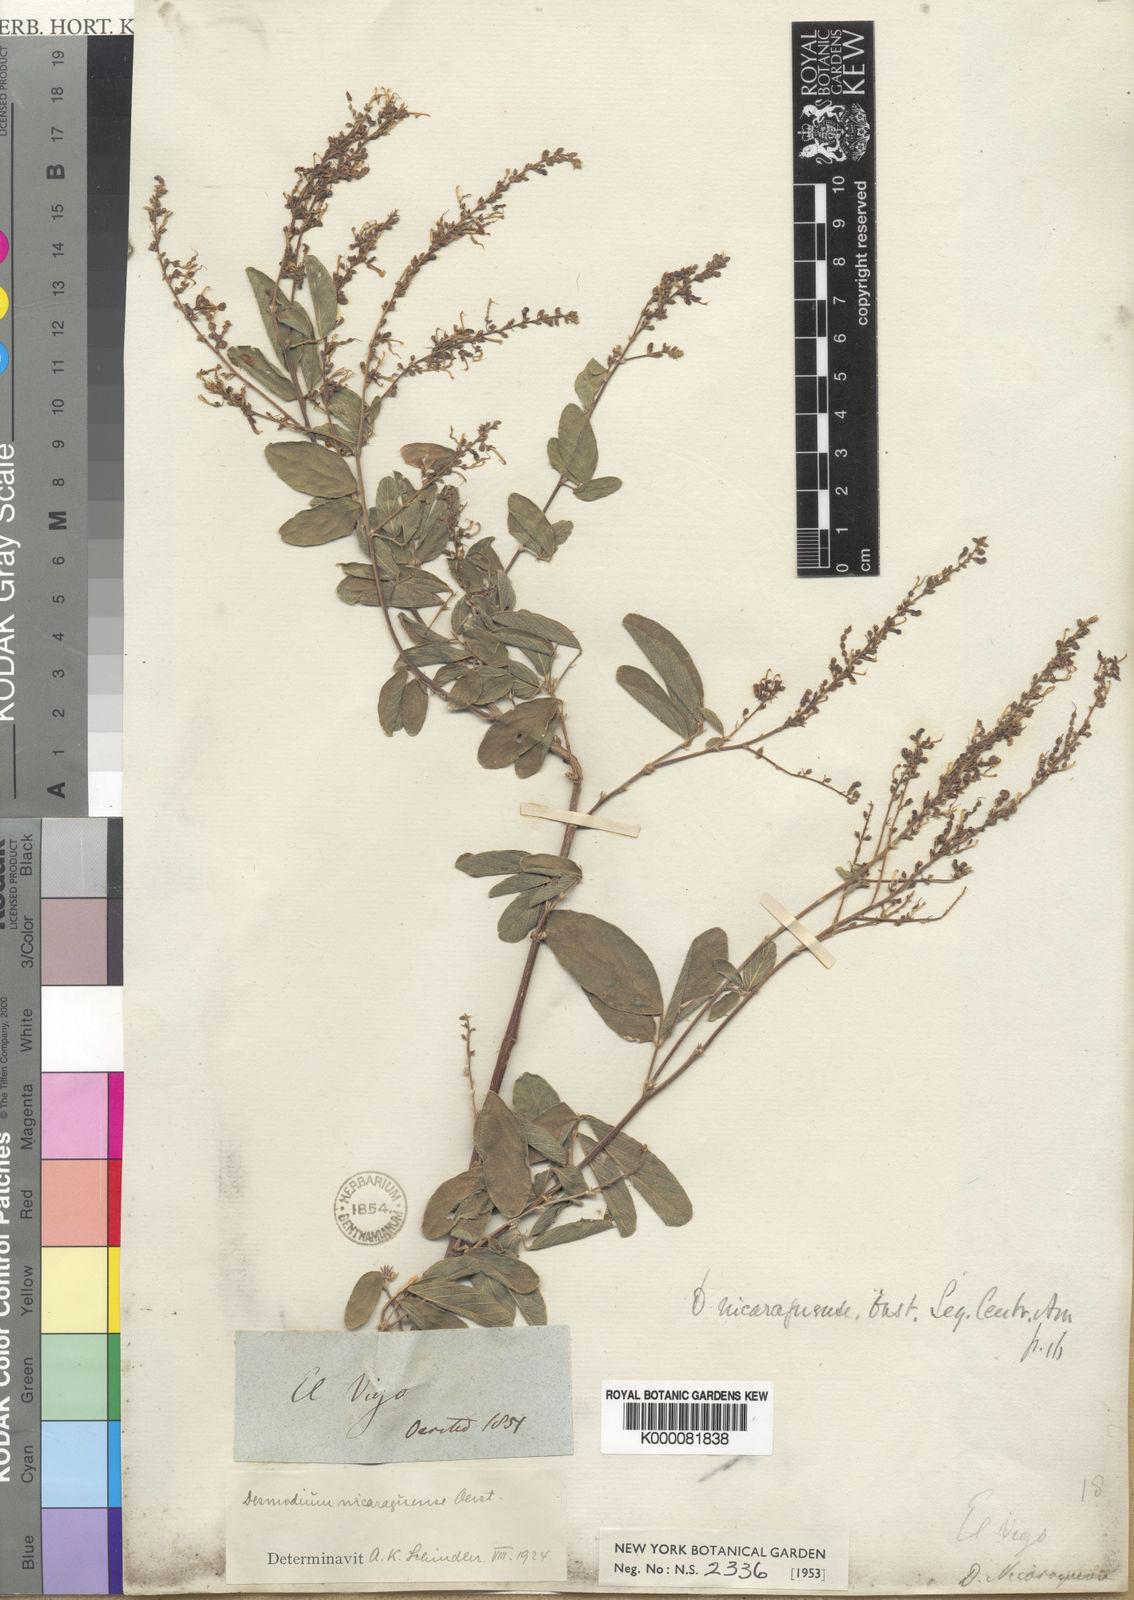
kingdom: Plantae
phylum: Tracheophyta
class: Magnoliopsida
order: Fabales
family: Fabaceae
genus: Desmodium
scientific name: Desmodium nicaraguense
